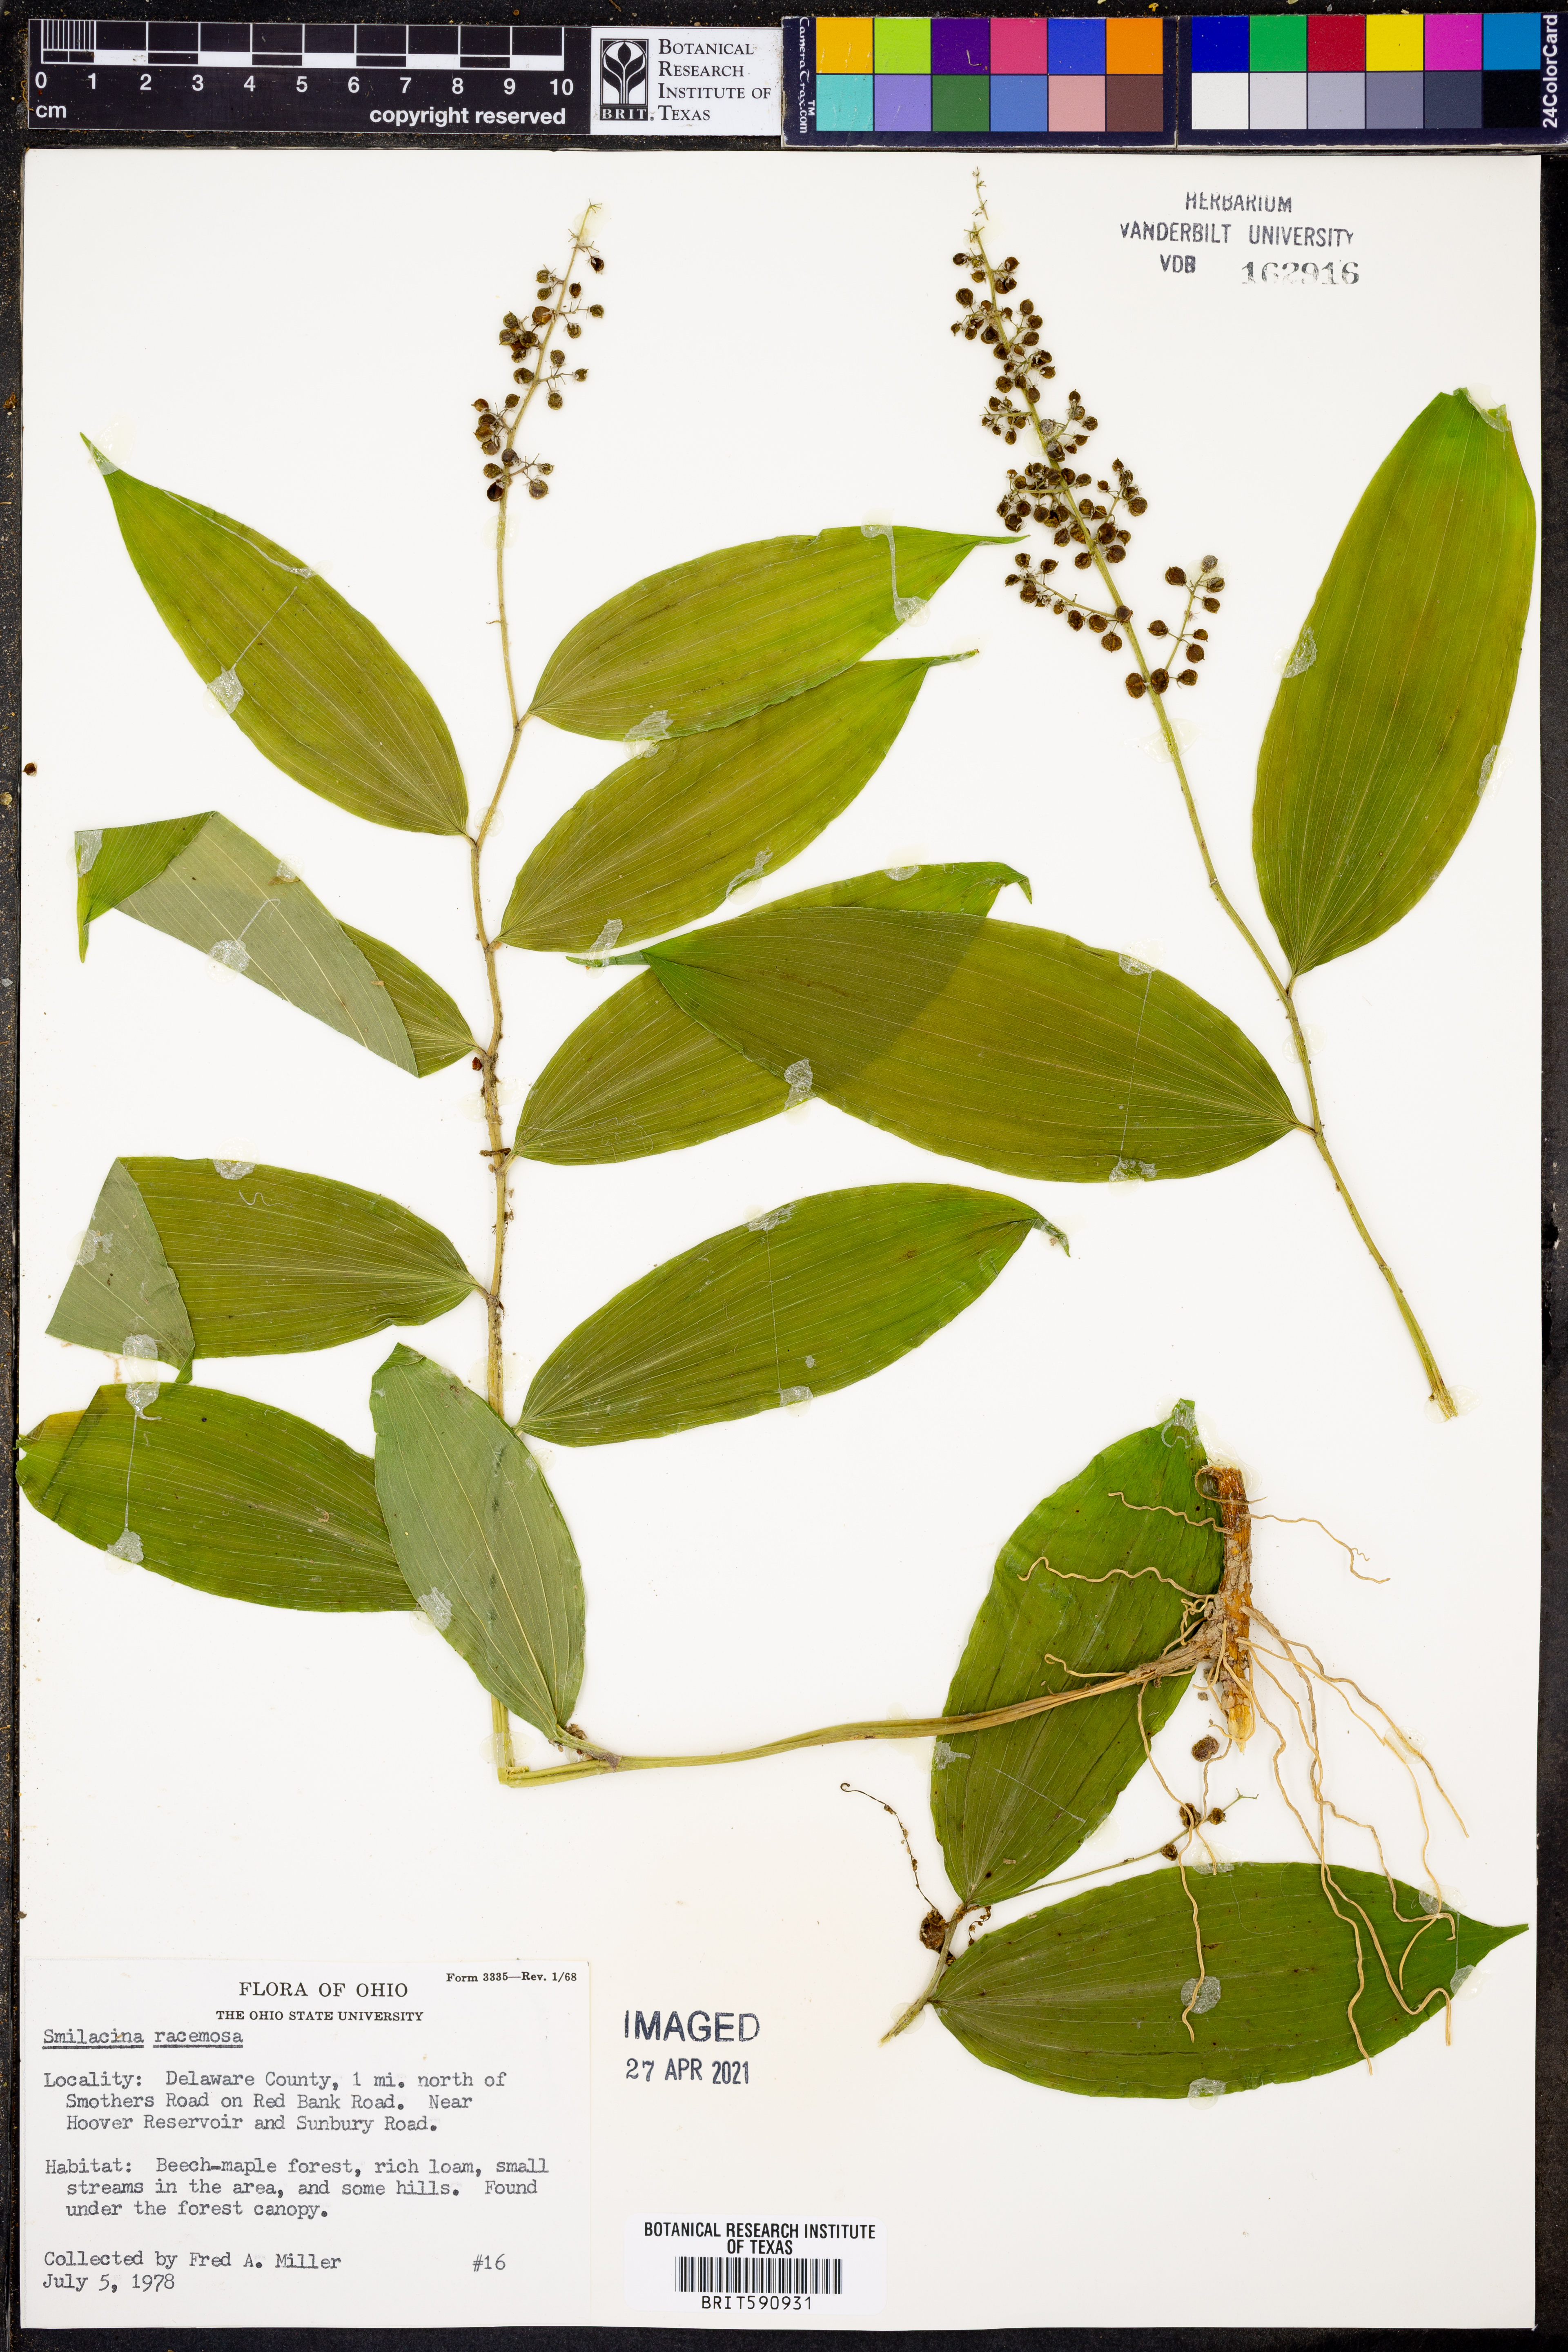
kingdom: Plantae
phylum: Tracheophyta
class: Liliopsida
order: Asparagales
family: Asparagaceae
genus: Maianthemum
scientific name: Maianthemum racemosum
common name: False spikenard
